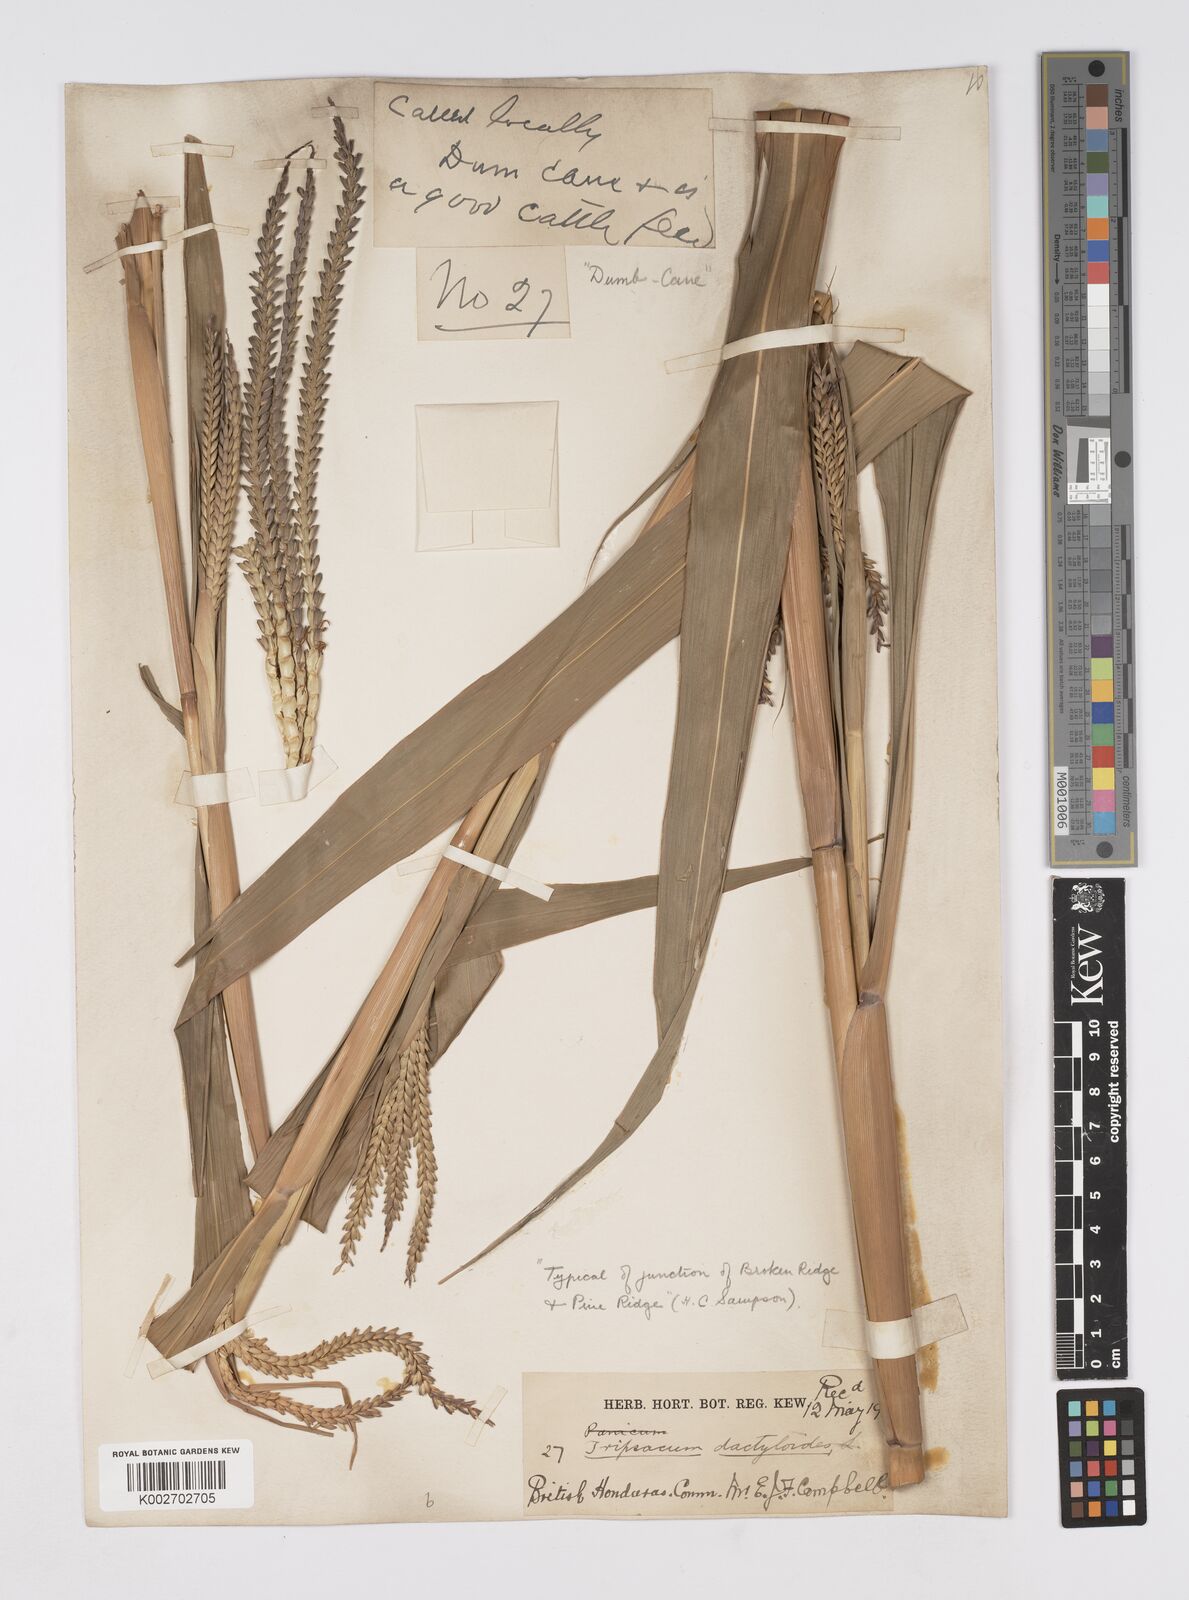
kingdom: Plantae
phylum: Tracheophyta
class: Liliopsida
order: Poales
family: Poaceae
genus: Tripsacum
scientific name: Tripsacum latifolium
